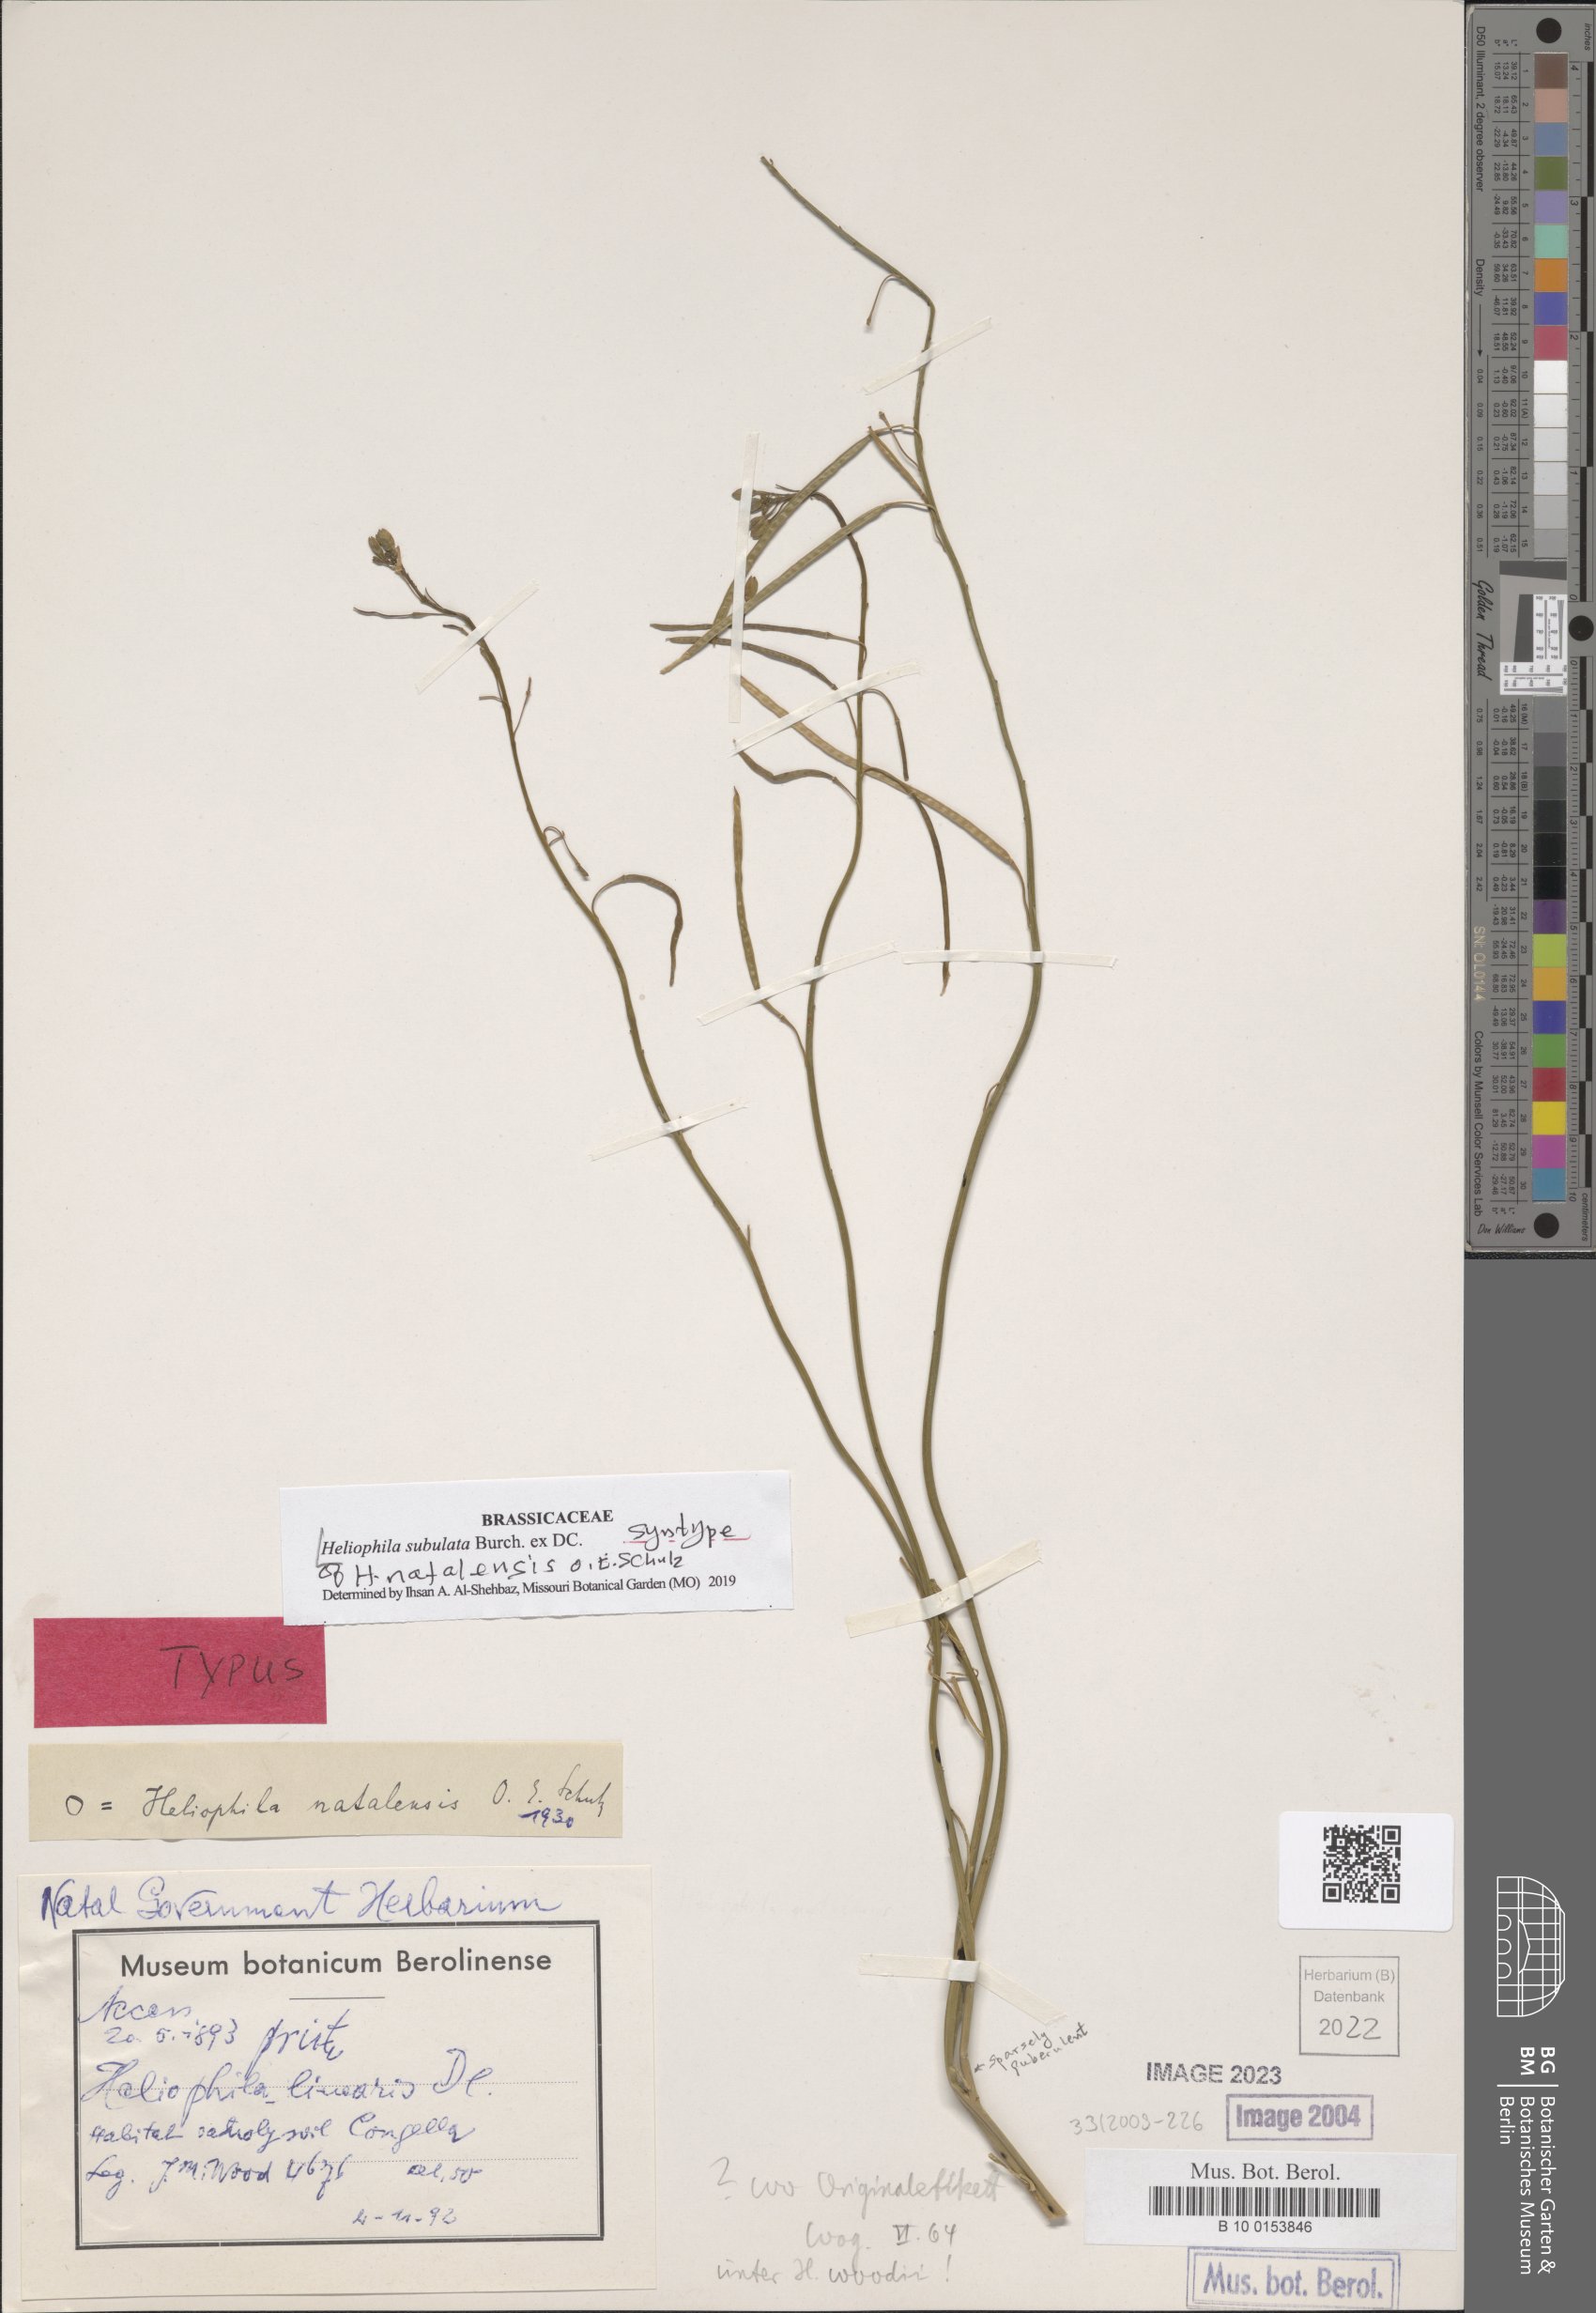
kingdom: Plantae
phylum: Tracheophyta
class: Magnoliopsida
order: Brassicales
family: Brassicaceae
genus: Heliophila
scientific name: Heliophila subulata
